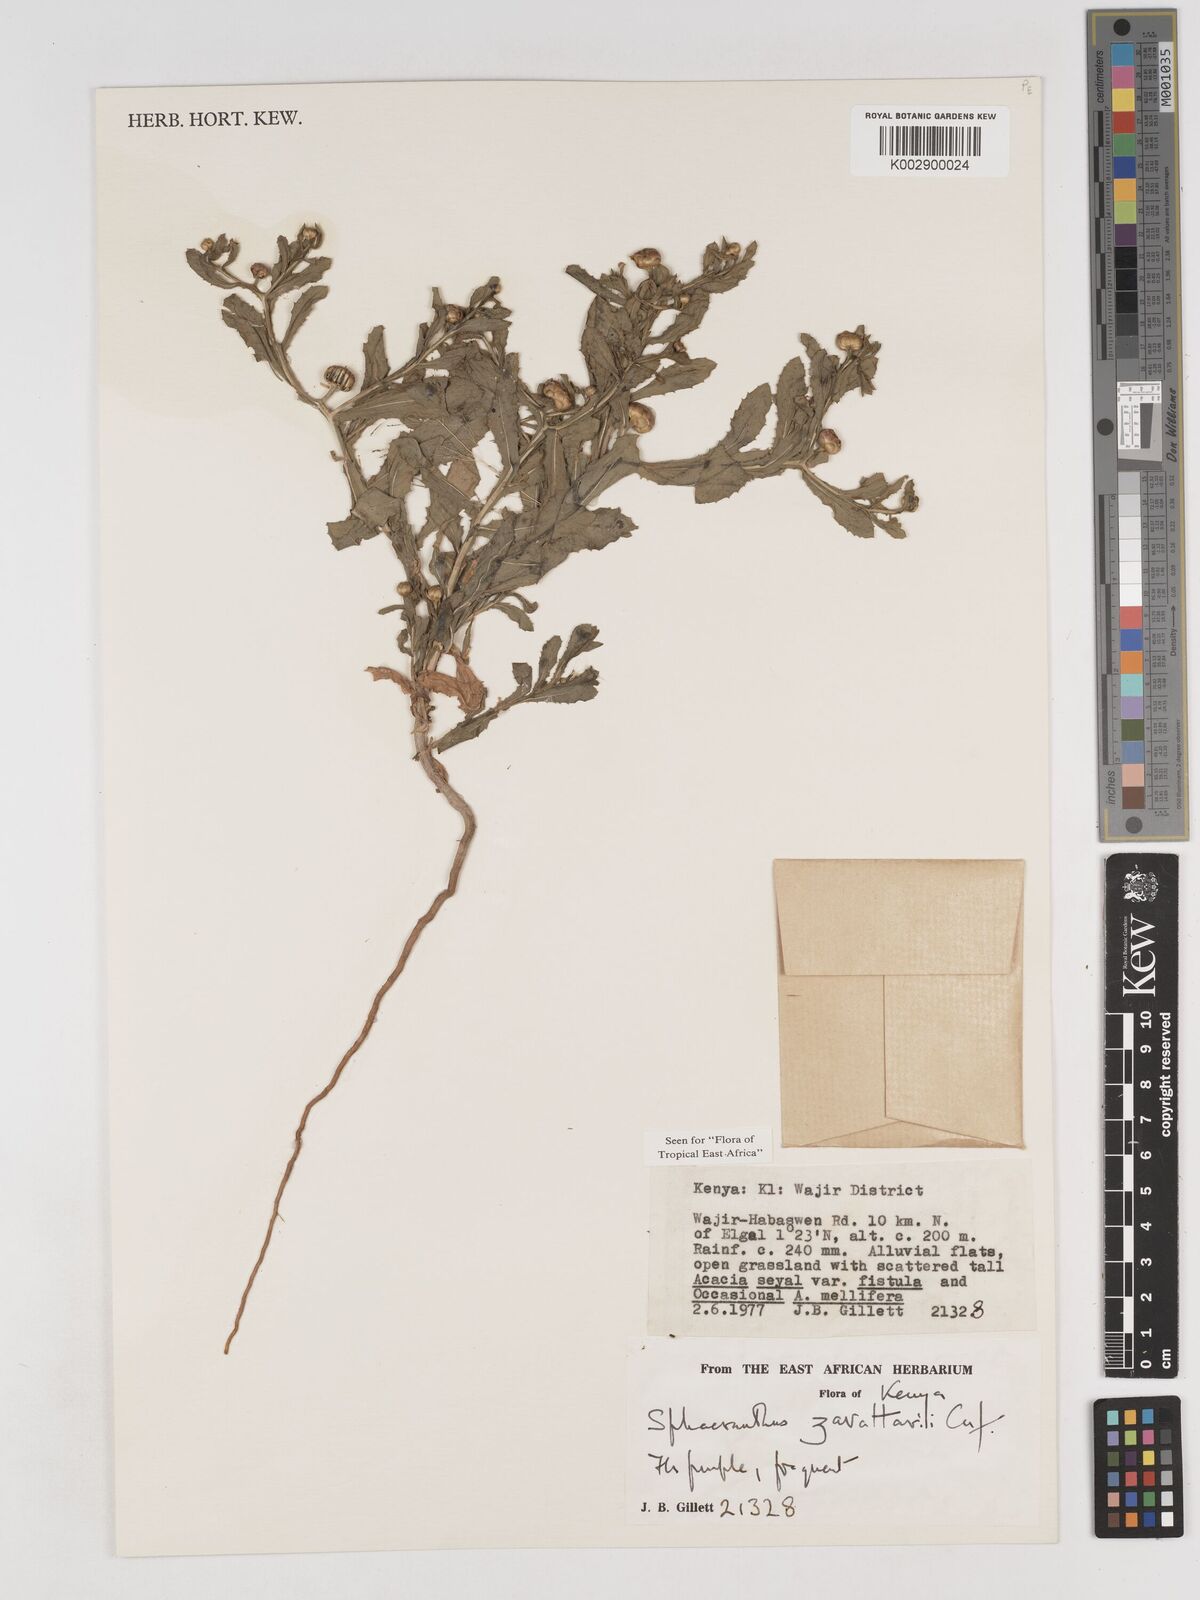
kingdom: Plantae
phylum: Tracheophyta
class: Magnoliopsida
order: Asterales
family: Asteraceae
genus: Sphaeranthus
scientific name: Sphaeranthus zavattarii
